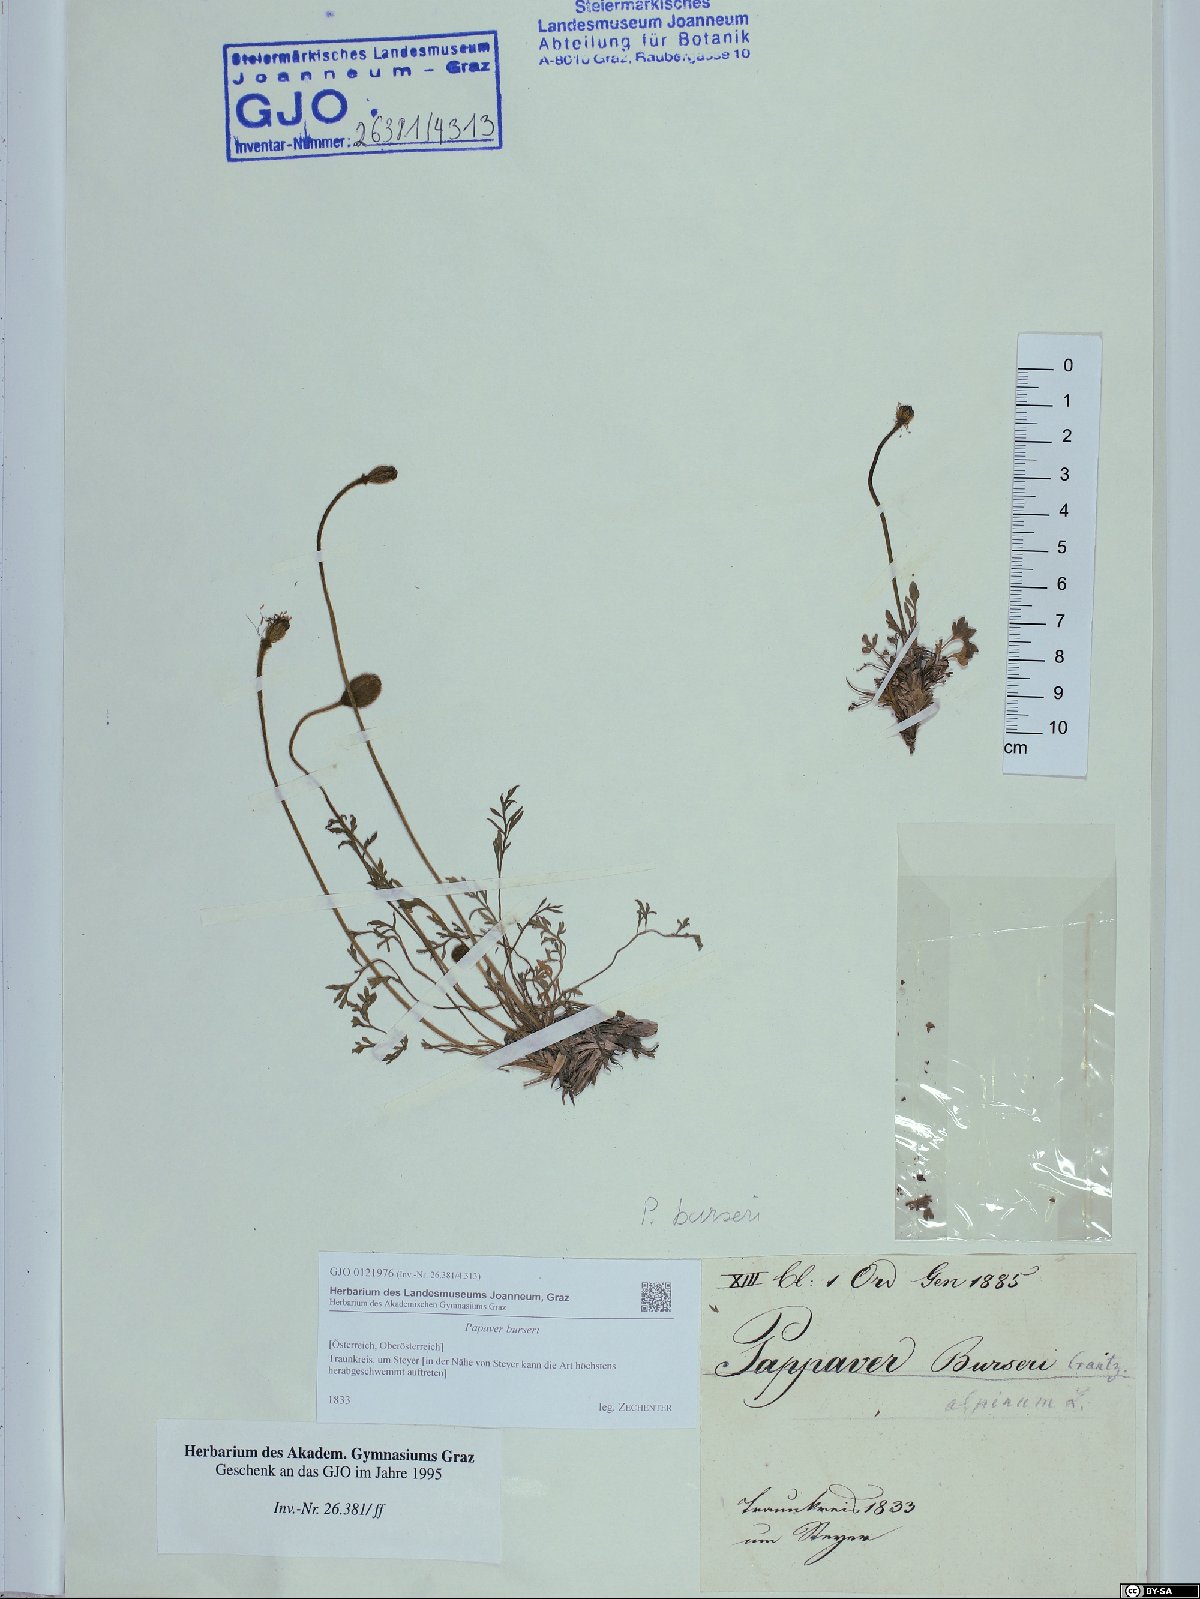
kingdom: Plantae
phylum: Tracheophyta
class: Magnoliopsida
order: Ranunculales
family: Papaveraceae
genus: Papaver
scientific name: Papaver alpinum
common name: Austrian poppy
